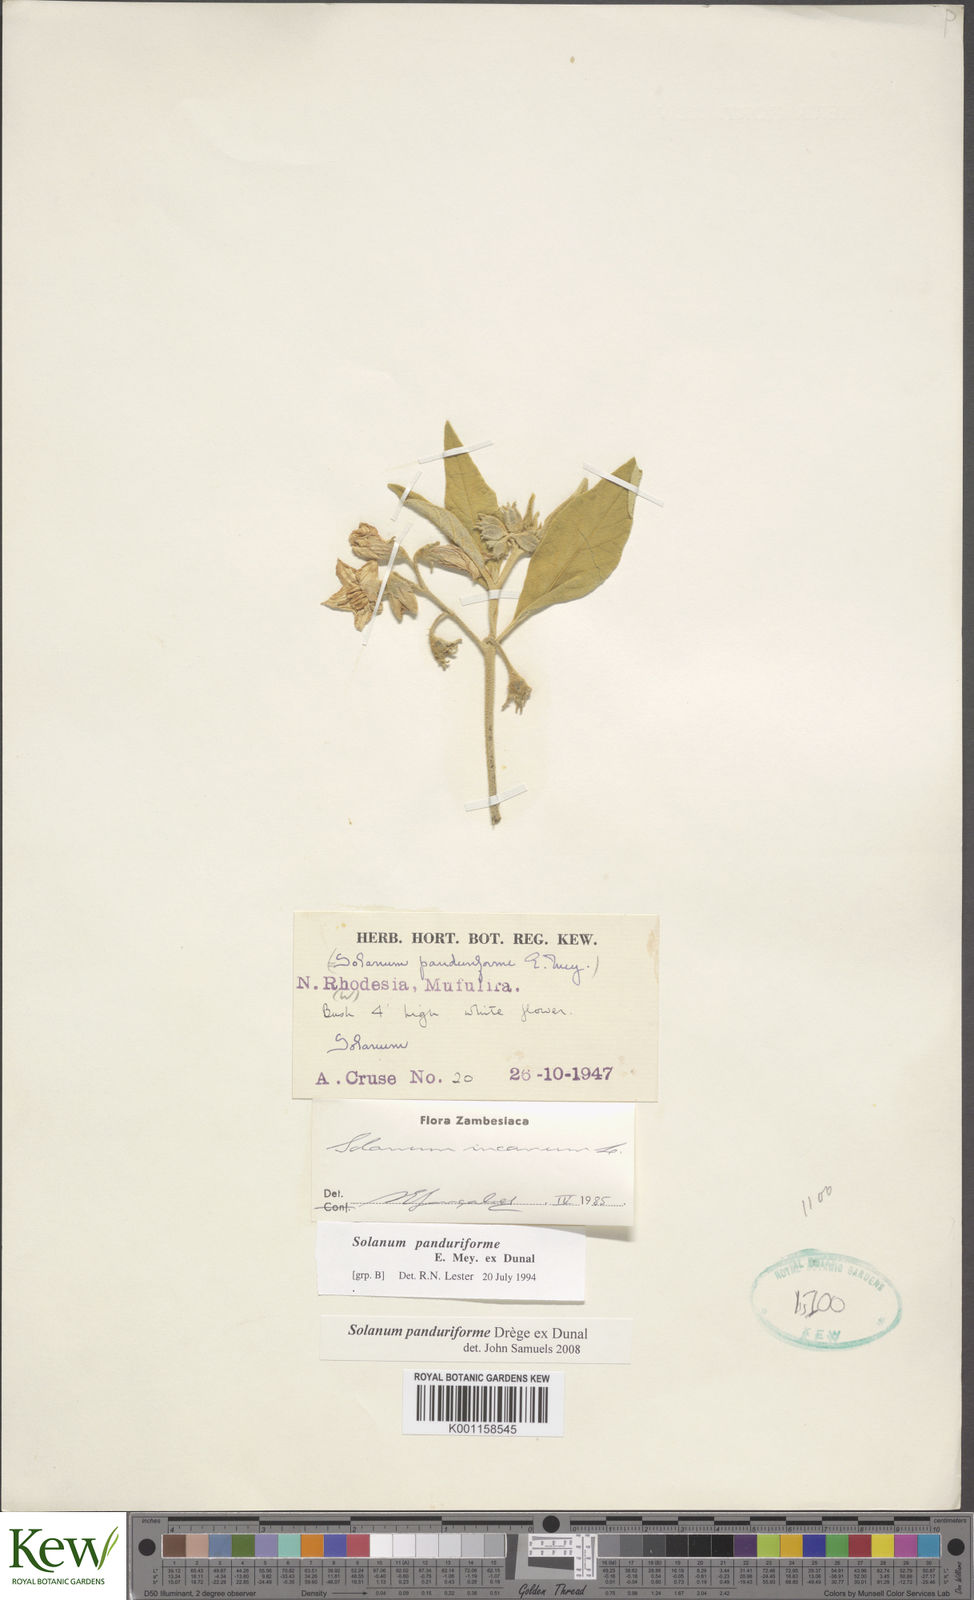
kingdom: Plantae
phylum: Tracheophyta
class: Magnoliopsida
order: Solanales
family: Solanaceae
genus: Solanum
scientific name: Solanum campylacanthum
